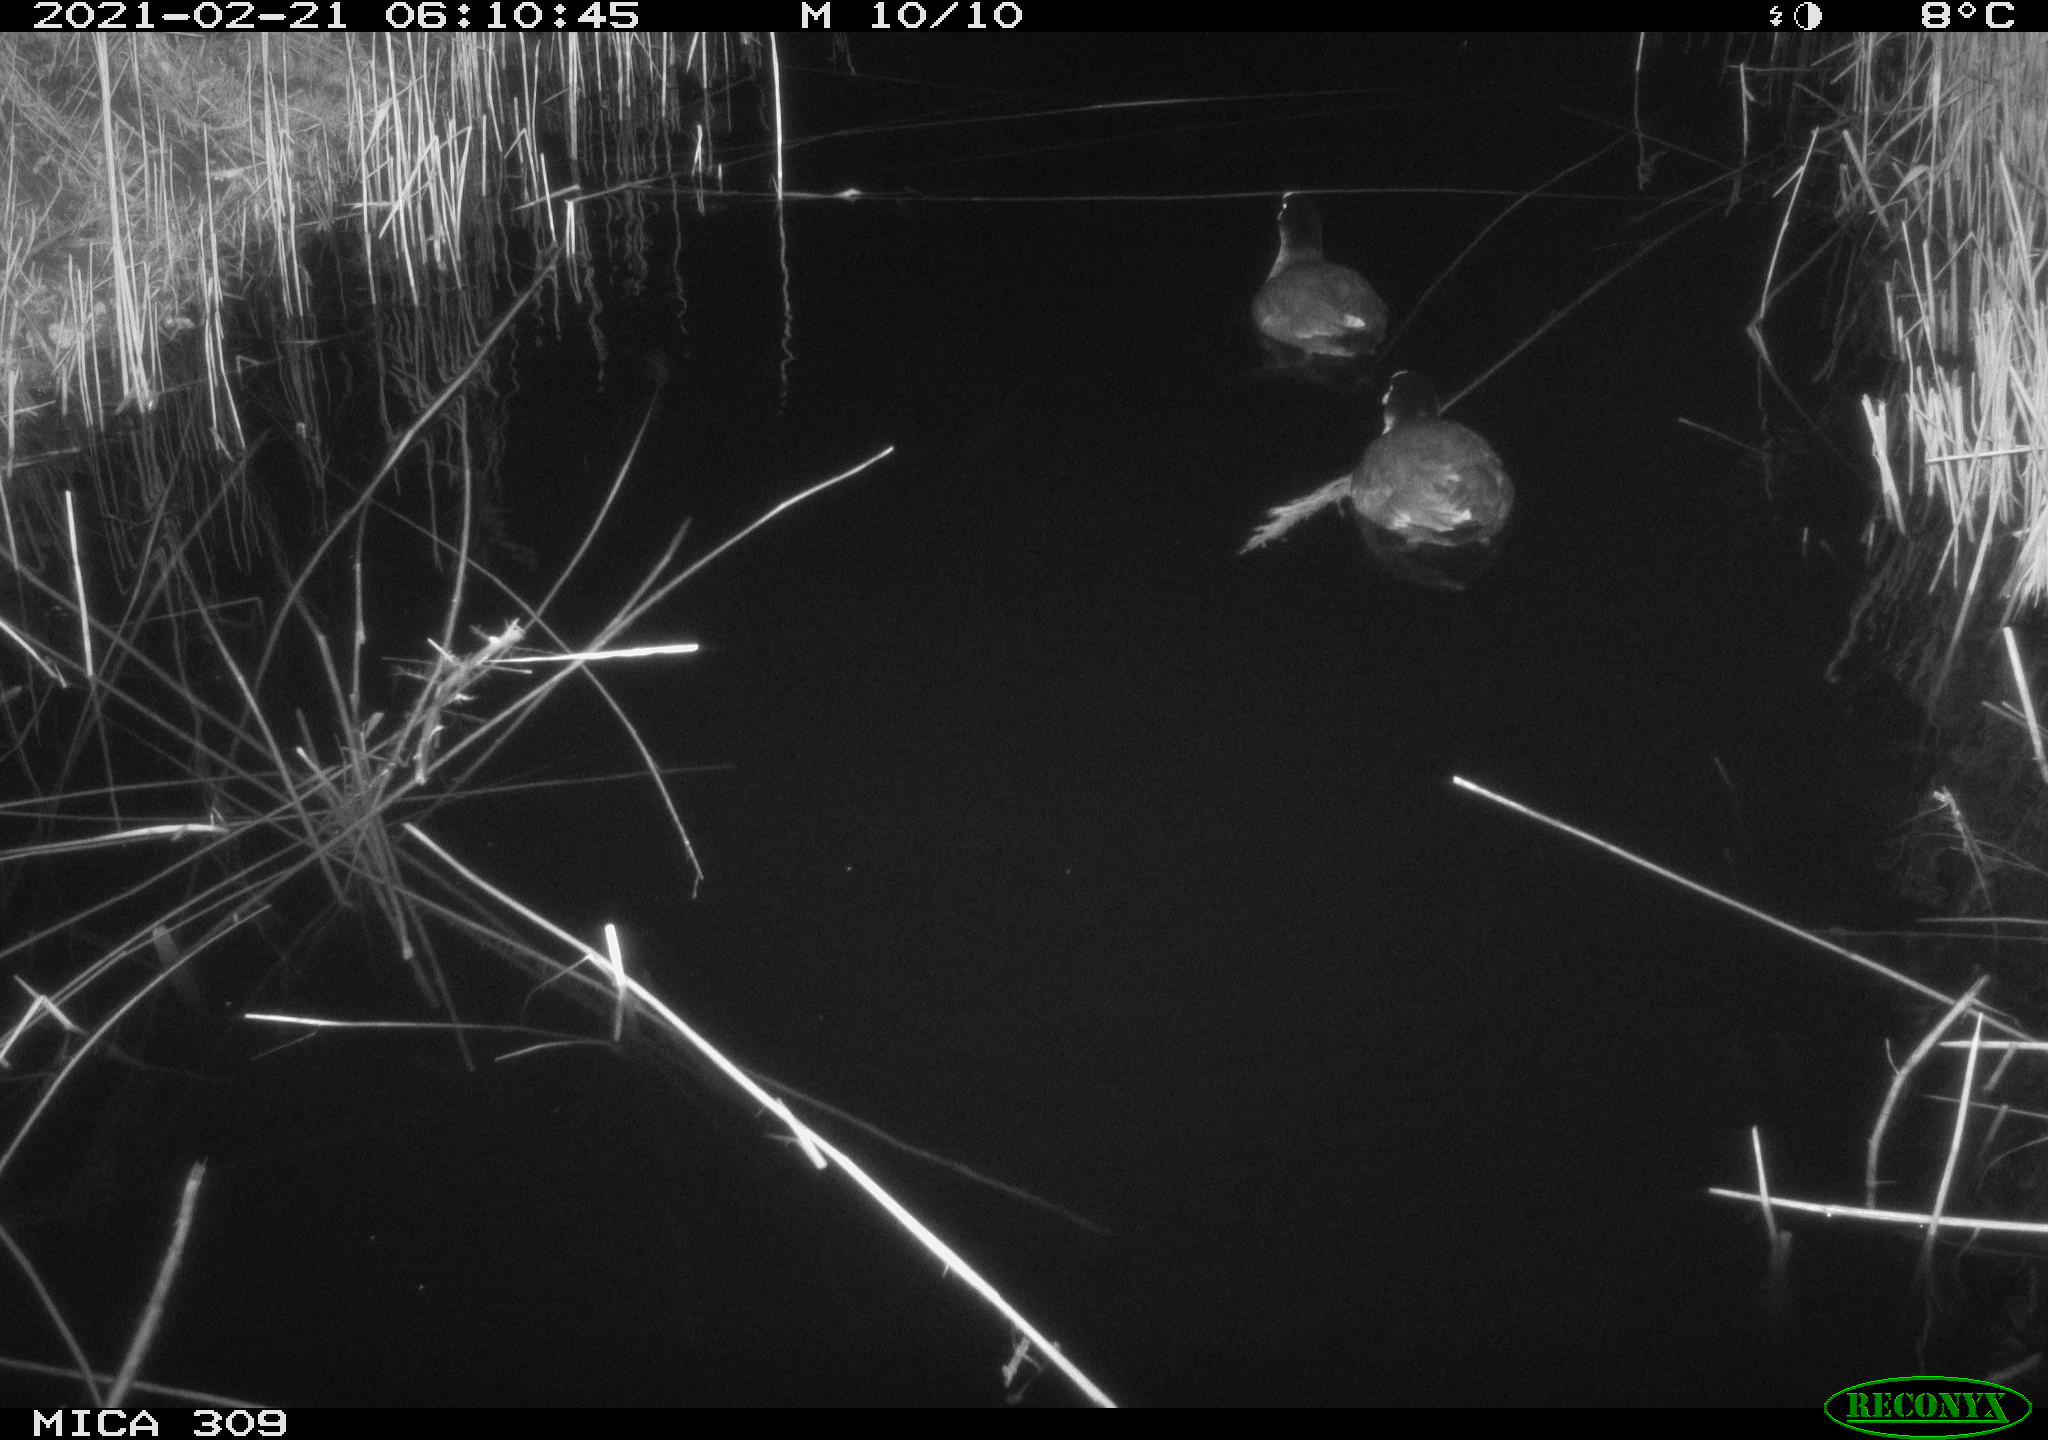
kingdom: Animalia
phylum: Chordata
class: Aves
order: Gruiformes
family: Rallidae
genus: Fulica
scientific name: Fulica atra
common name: Eurasian coot
